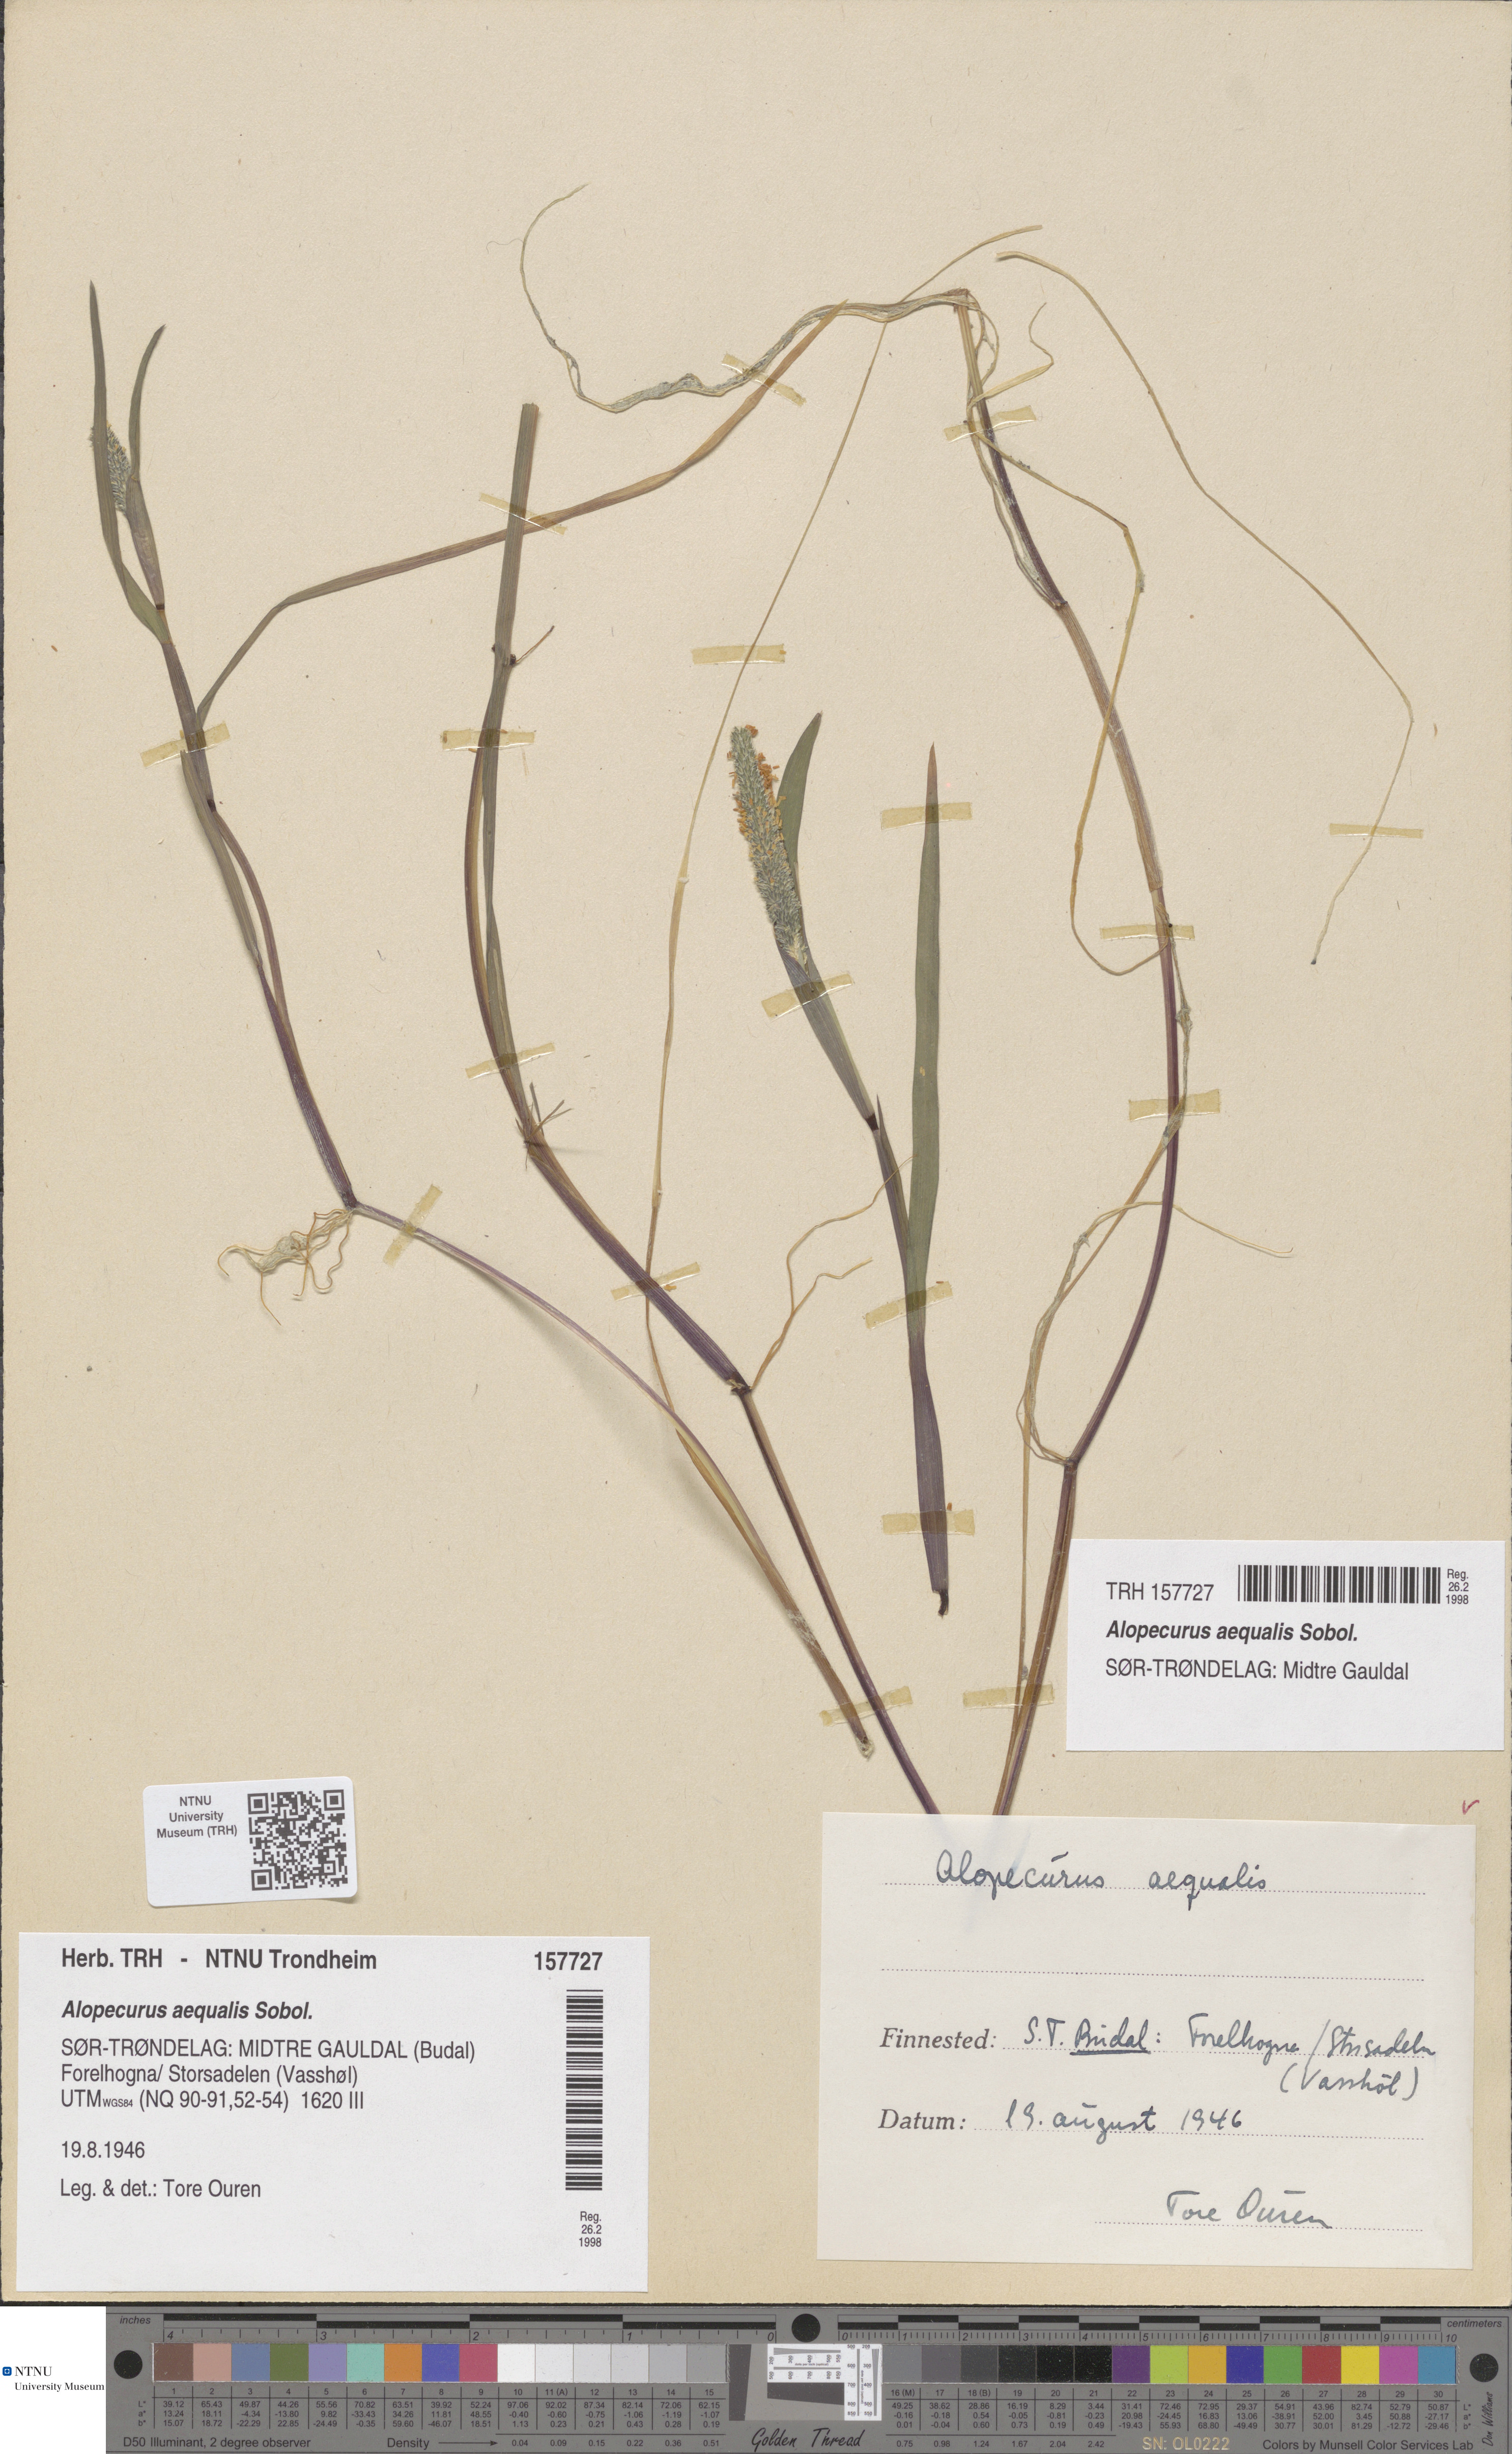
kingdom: Plantae
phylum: Tracheophyta
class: Liliopsida
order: Poales
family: Poaceae
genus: Alopecurus
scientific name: Alopecurus aequalis
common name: Orange foxtail
